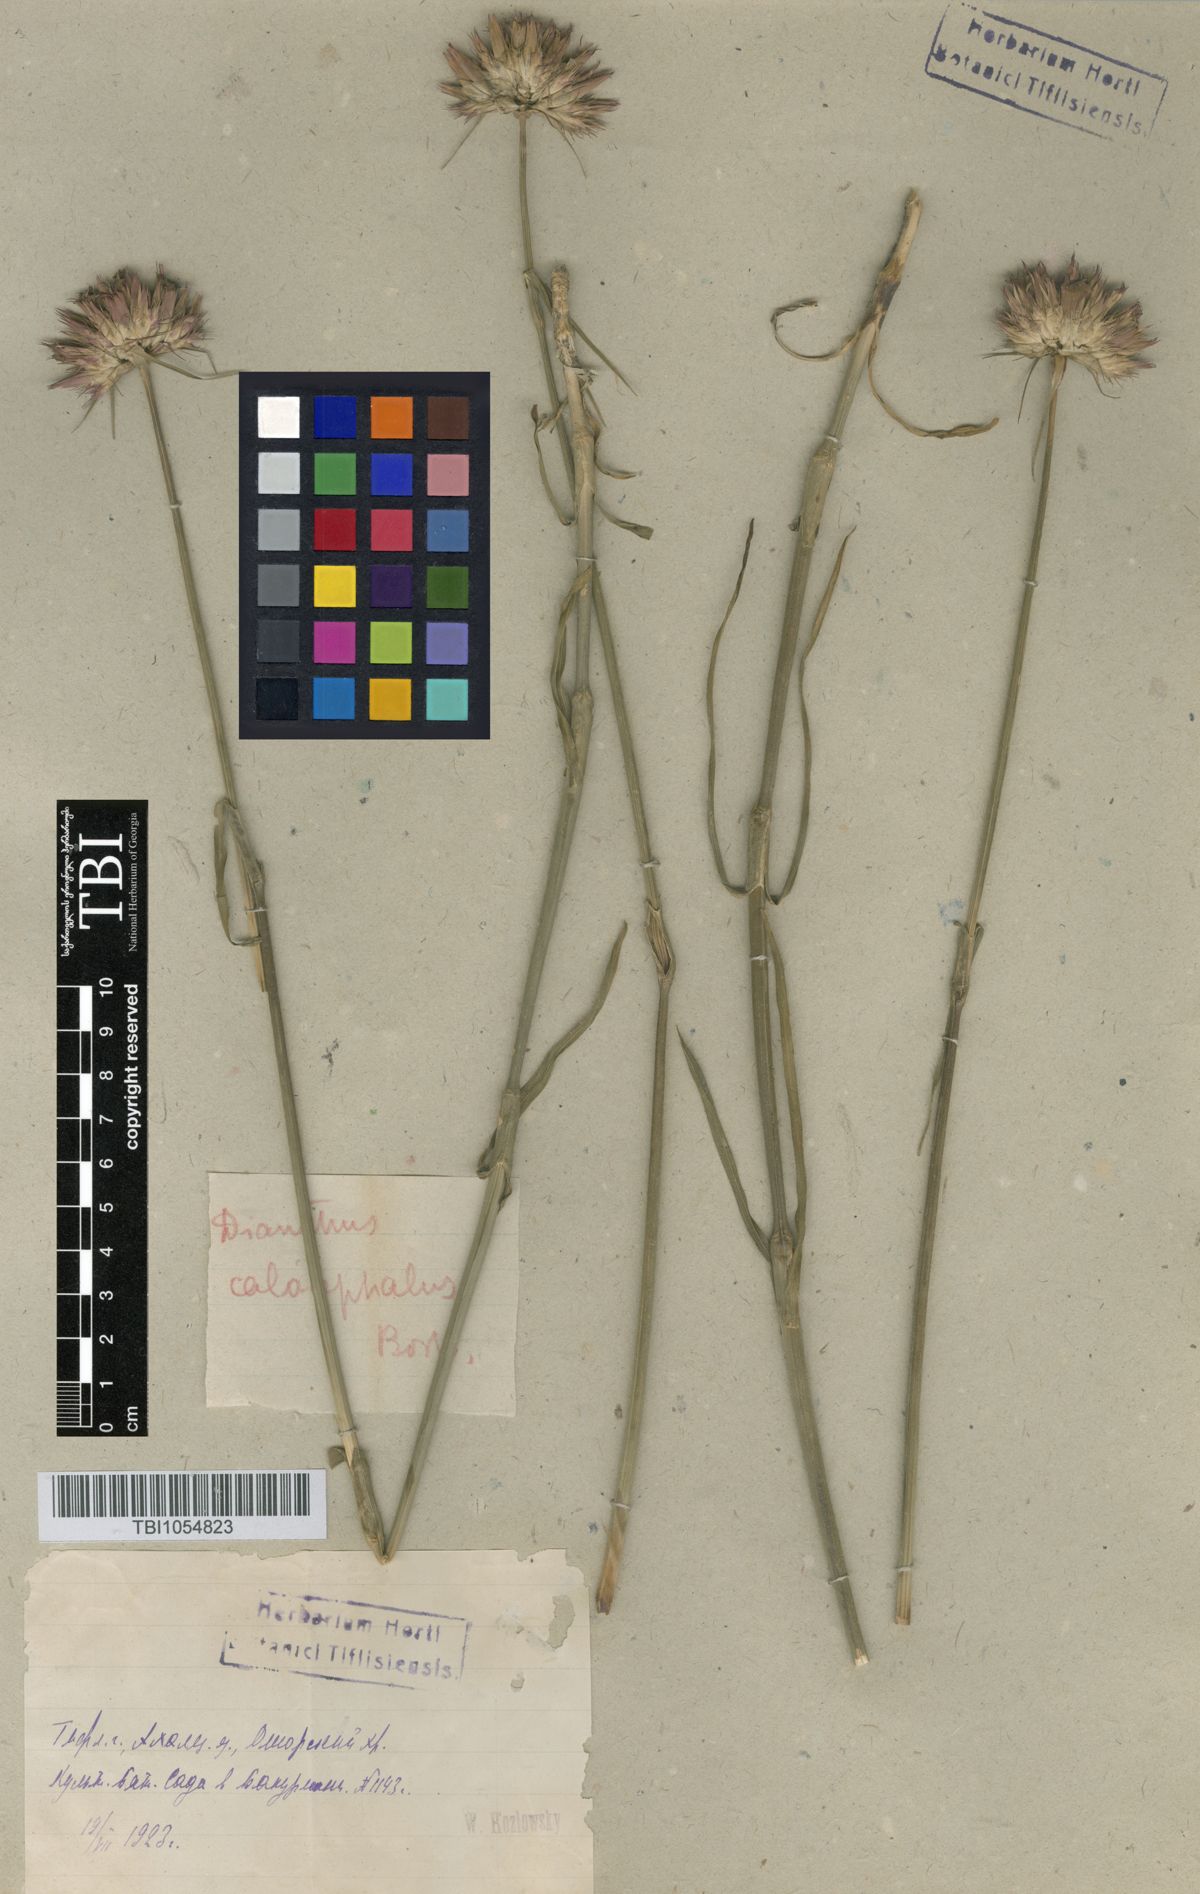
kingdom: Plantae
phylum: Tracheophyta
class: Magnoliopsida
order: Caryophyllales
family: Caryophyllaceae
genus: Dianthus
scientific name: Dianthus cruentus
